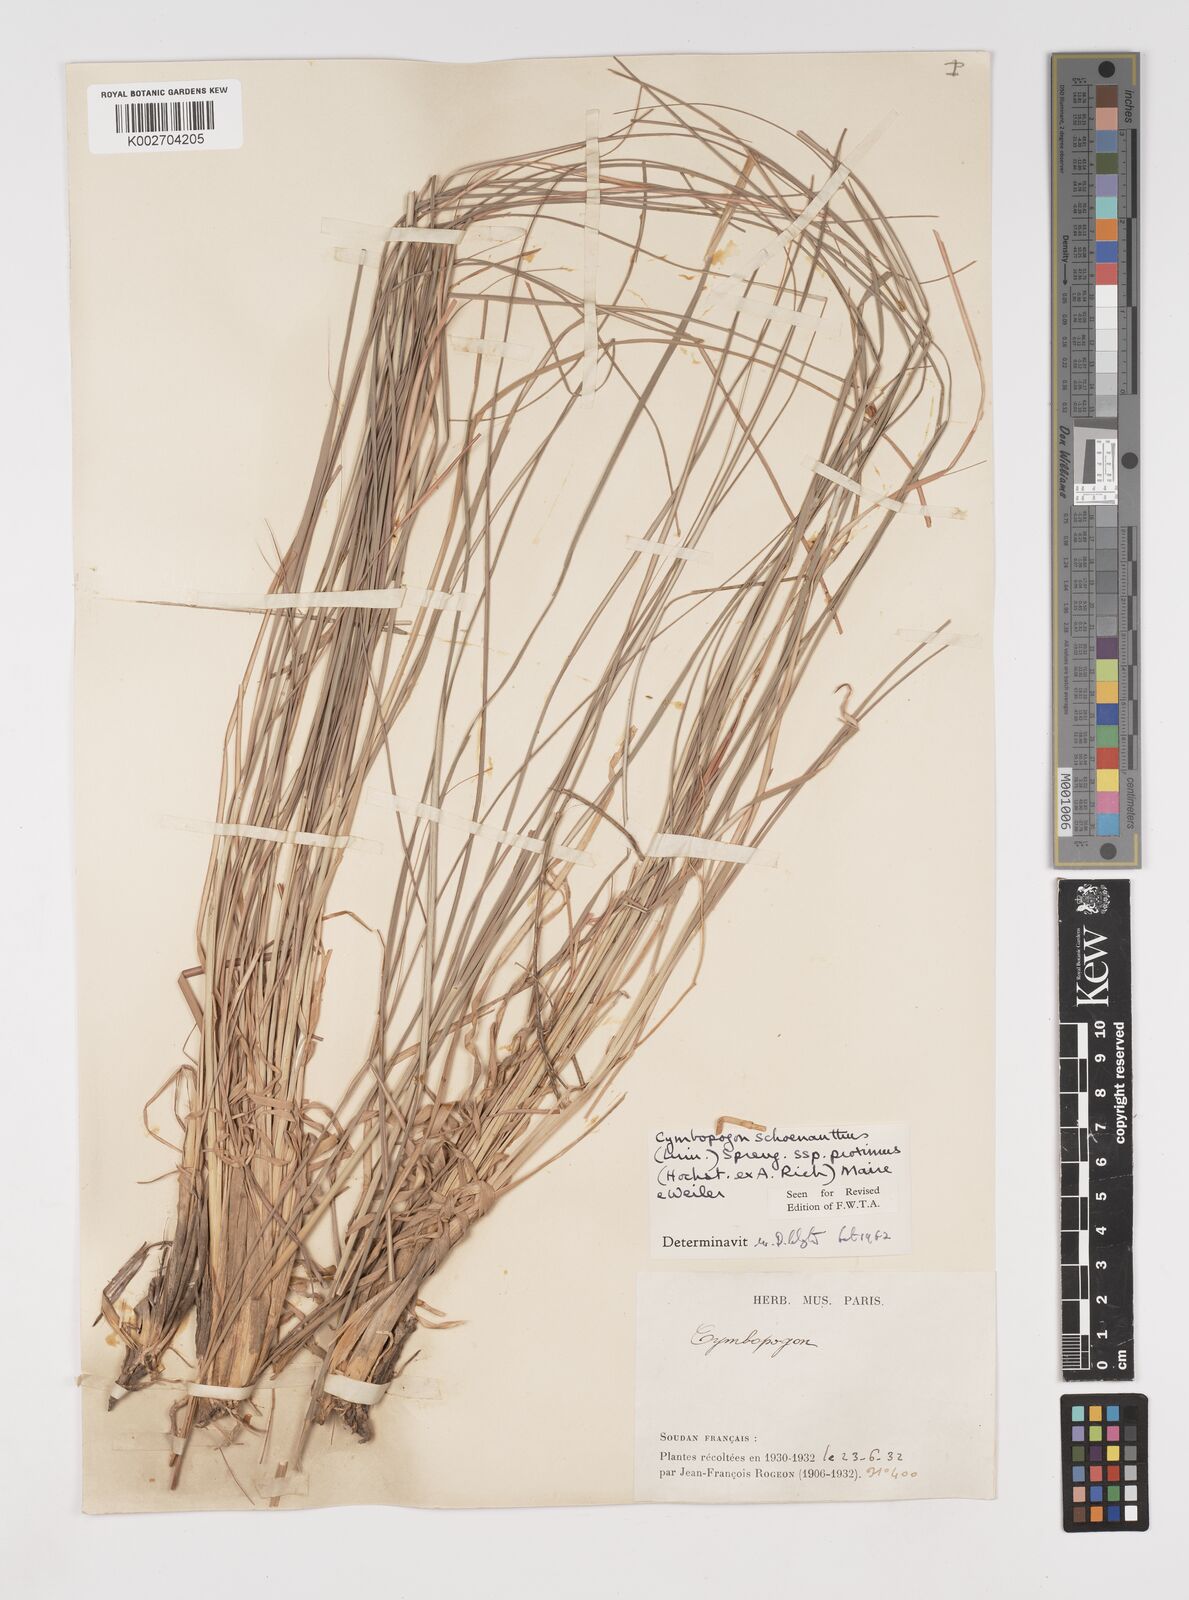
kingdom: Plantae
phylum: Tracheophyta
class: Liliopsida
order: Poales
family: Poaceae
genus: Cymbopogon
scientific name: Cymbopogon schoenanthus
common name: Geranium grass
